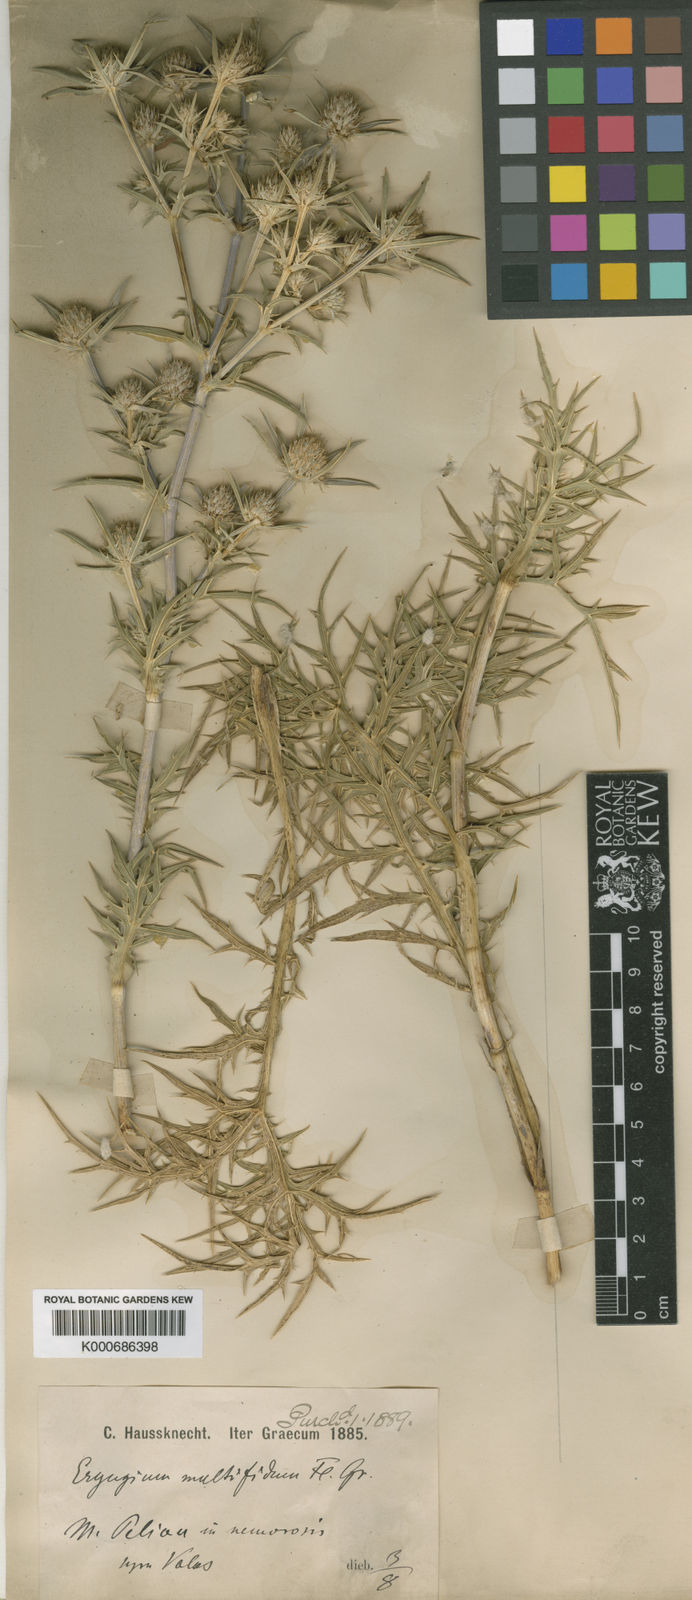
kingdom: Plantae
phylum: Tracheophyta
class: Magnoliopsida
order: Apiales
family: Apiaceae
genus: Eryngium
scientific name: Eryngium amethystinum
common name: Amethyst eryngo
